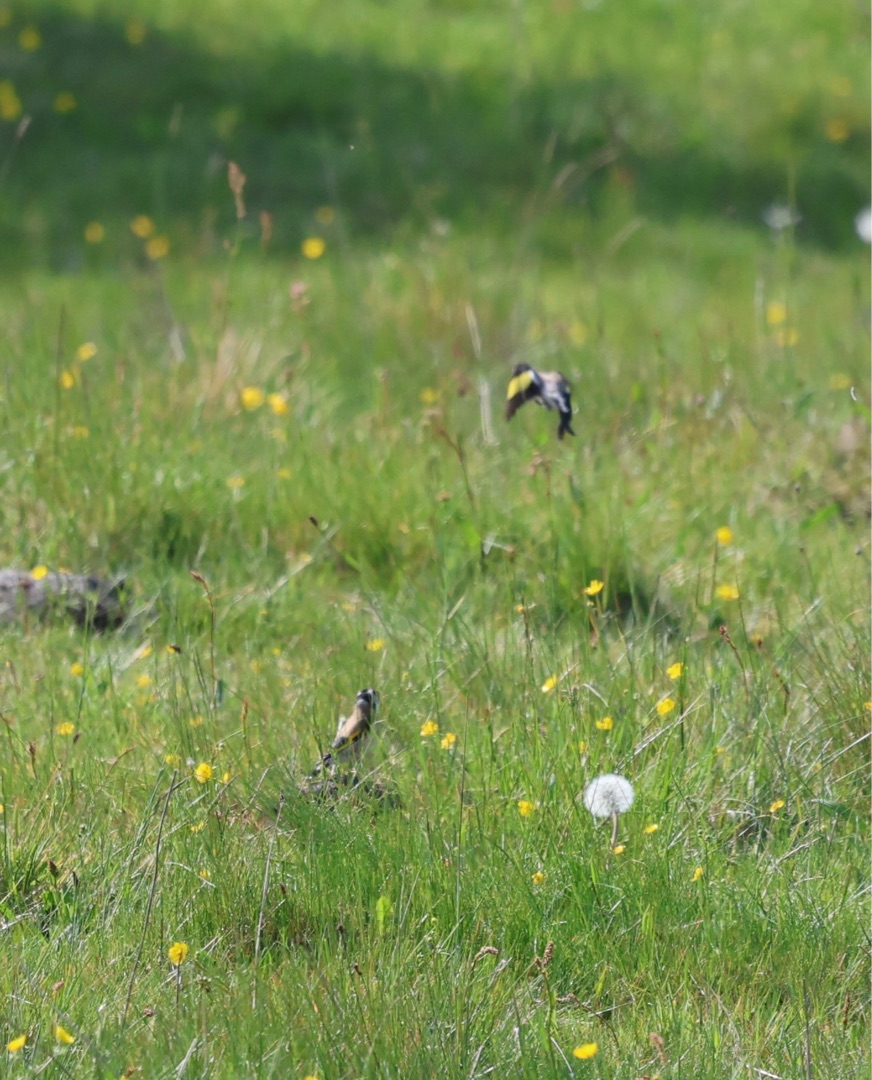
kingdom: Animalia
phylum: Chordata
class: Aves
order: Passeriformes
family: Fringillidae
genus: Carduelis
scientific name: Carduelis carduelis
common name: Stillits
